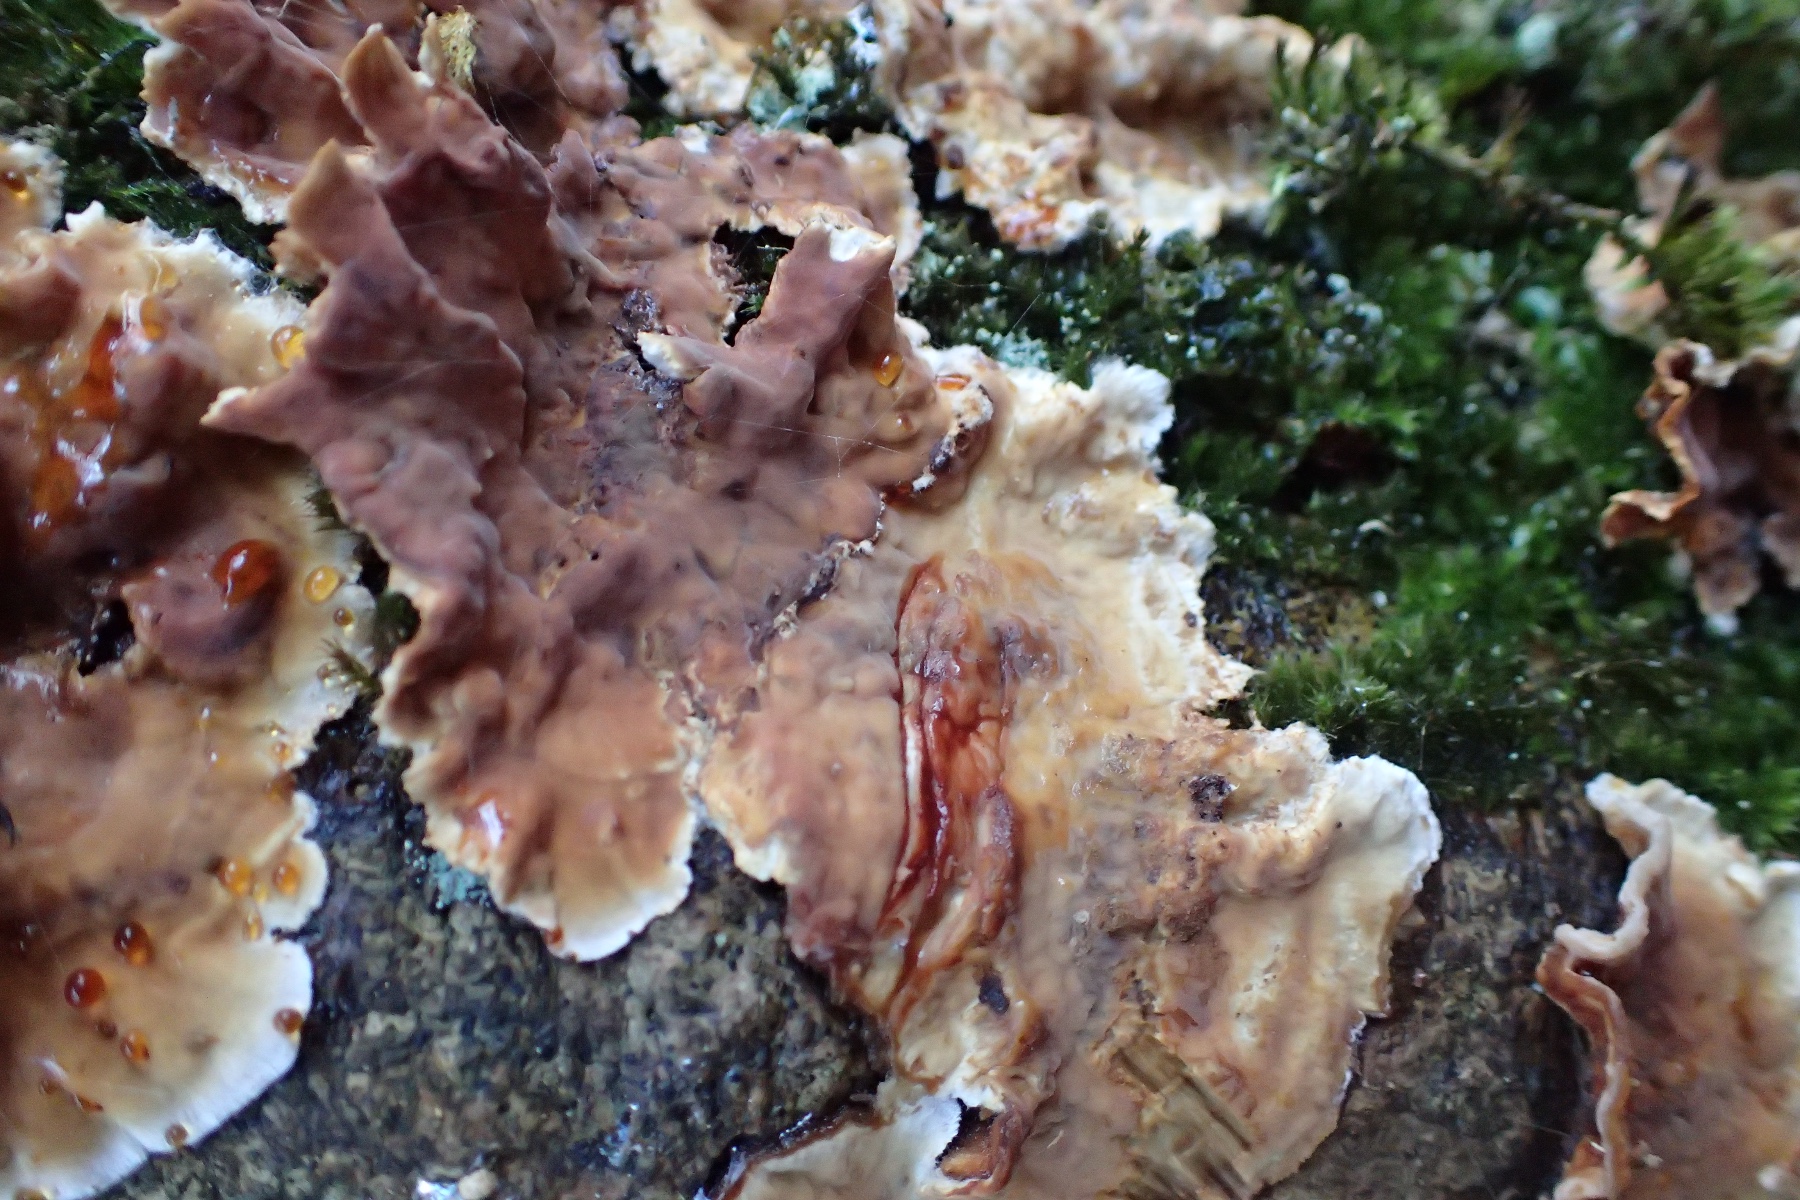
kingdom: Fungi
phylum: Basidiomycota
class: Agaricomycetes
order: Russulales
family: Stereaceae
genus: Stereum
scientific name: Stereum gausapatum
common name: tynd lædersvamp
